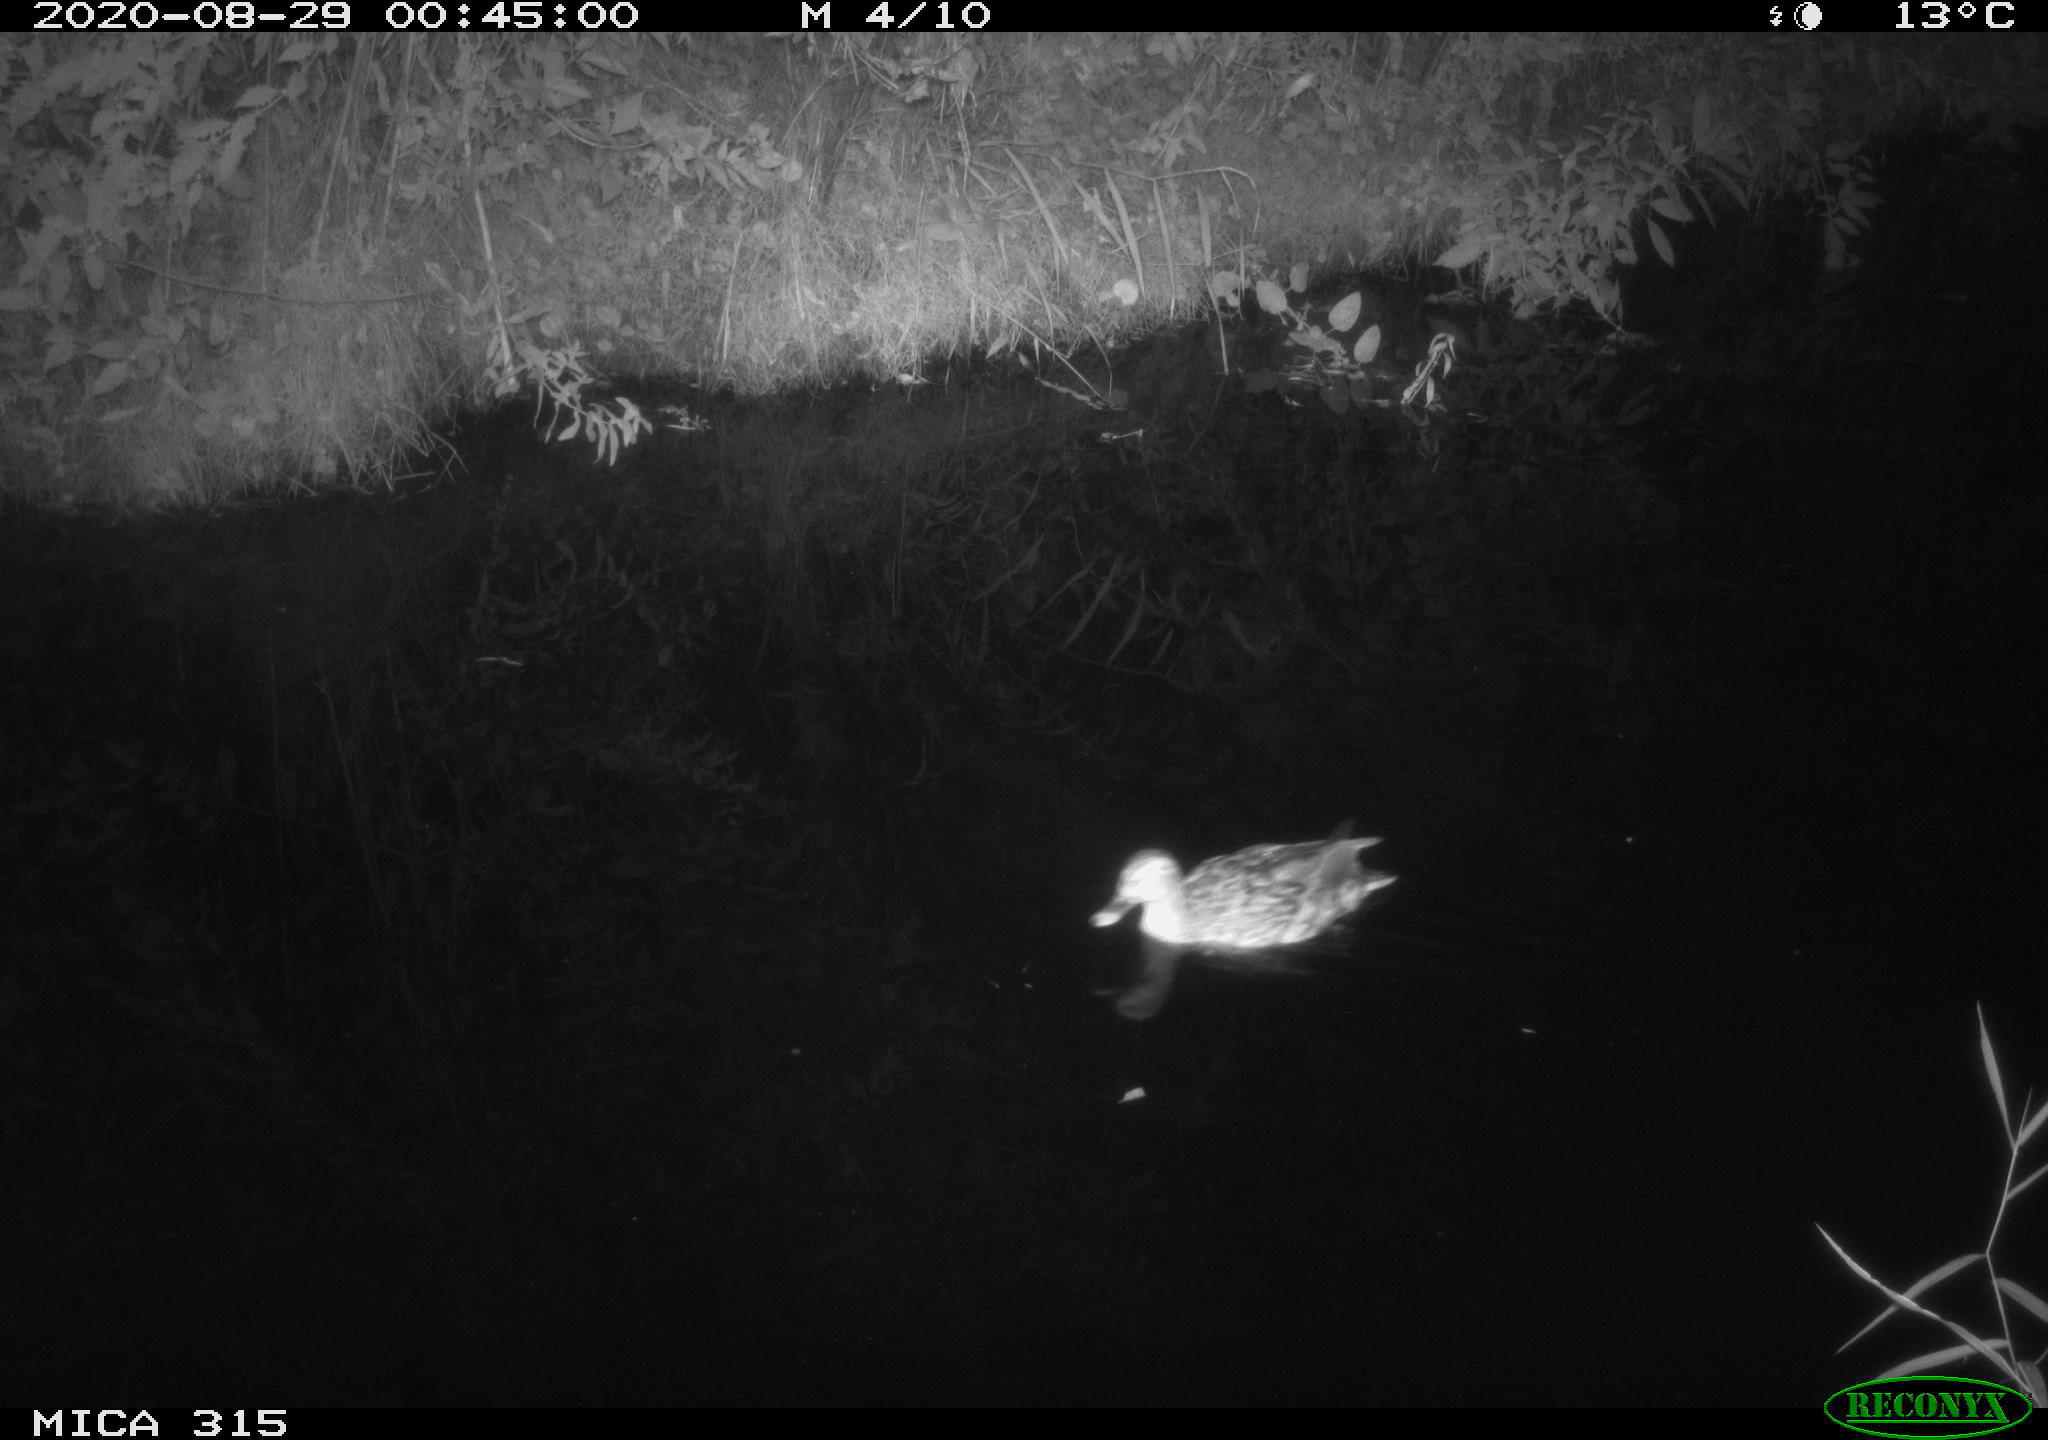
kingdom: Animalia
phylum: Chordata
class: Aves
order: Anseriformes
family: Anatidae
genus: Anas
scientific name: Anas platyrhynchos
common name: Mallard
